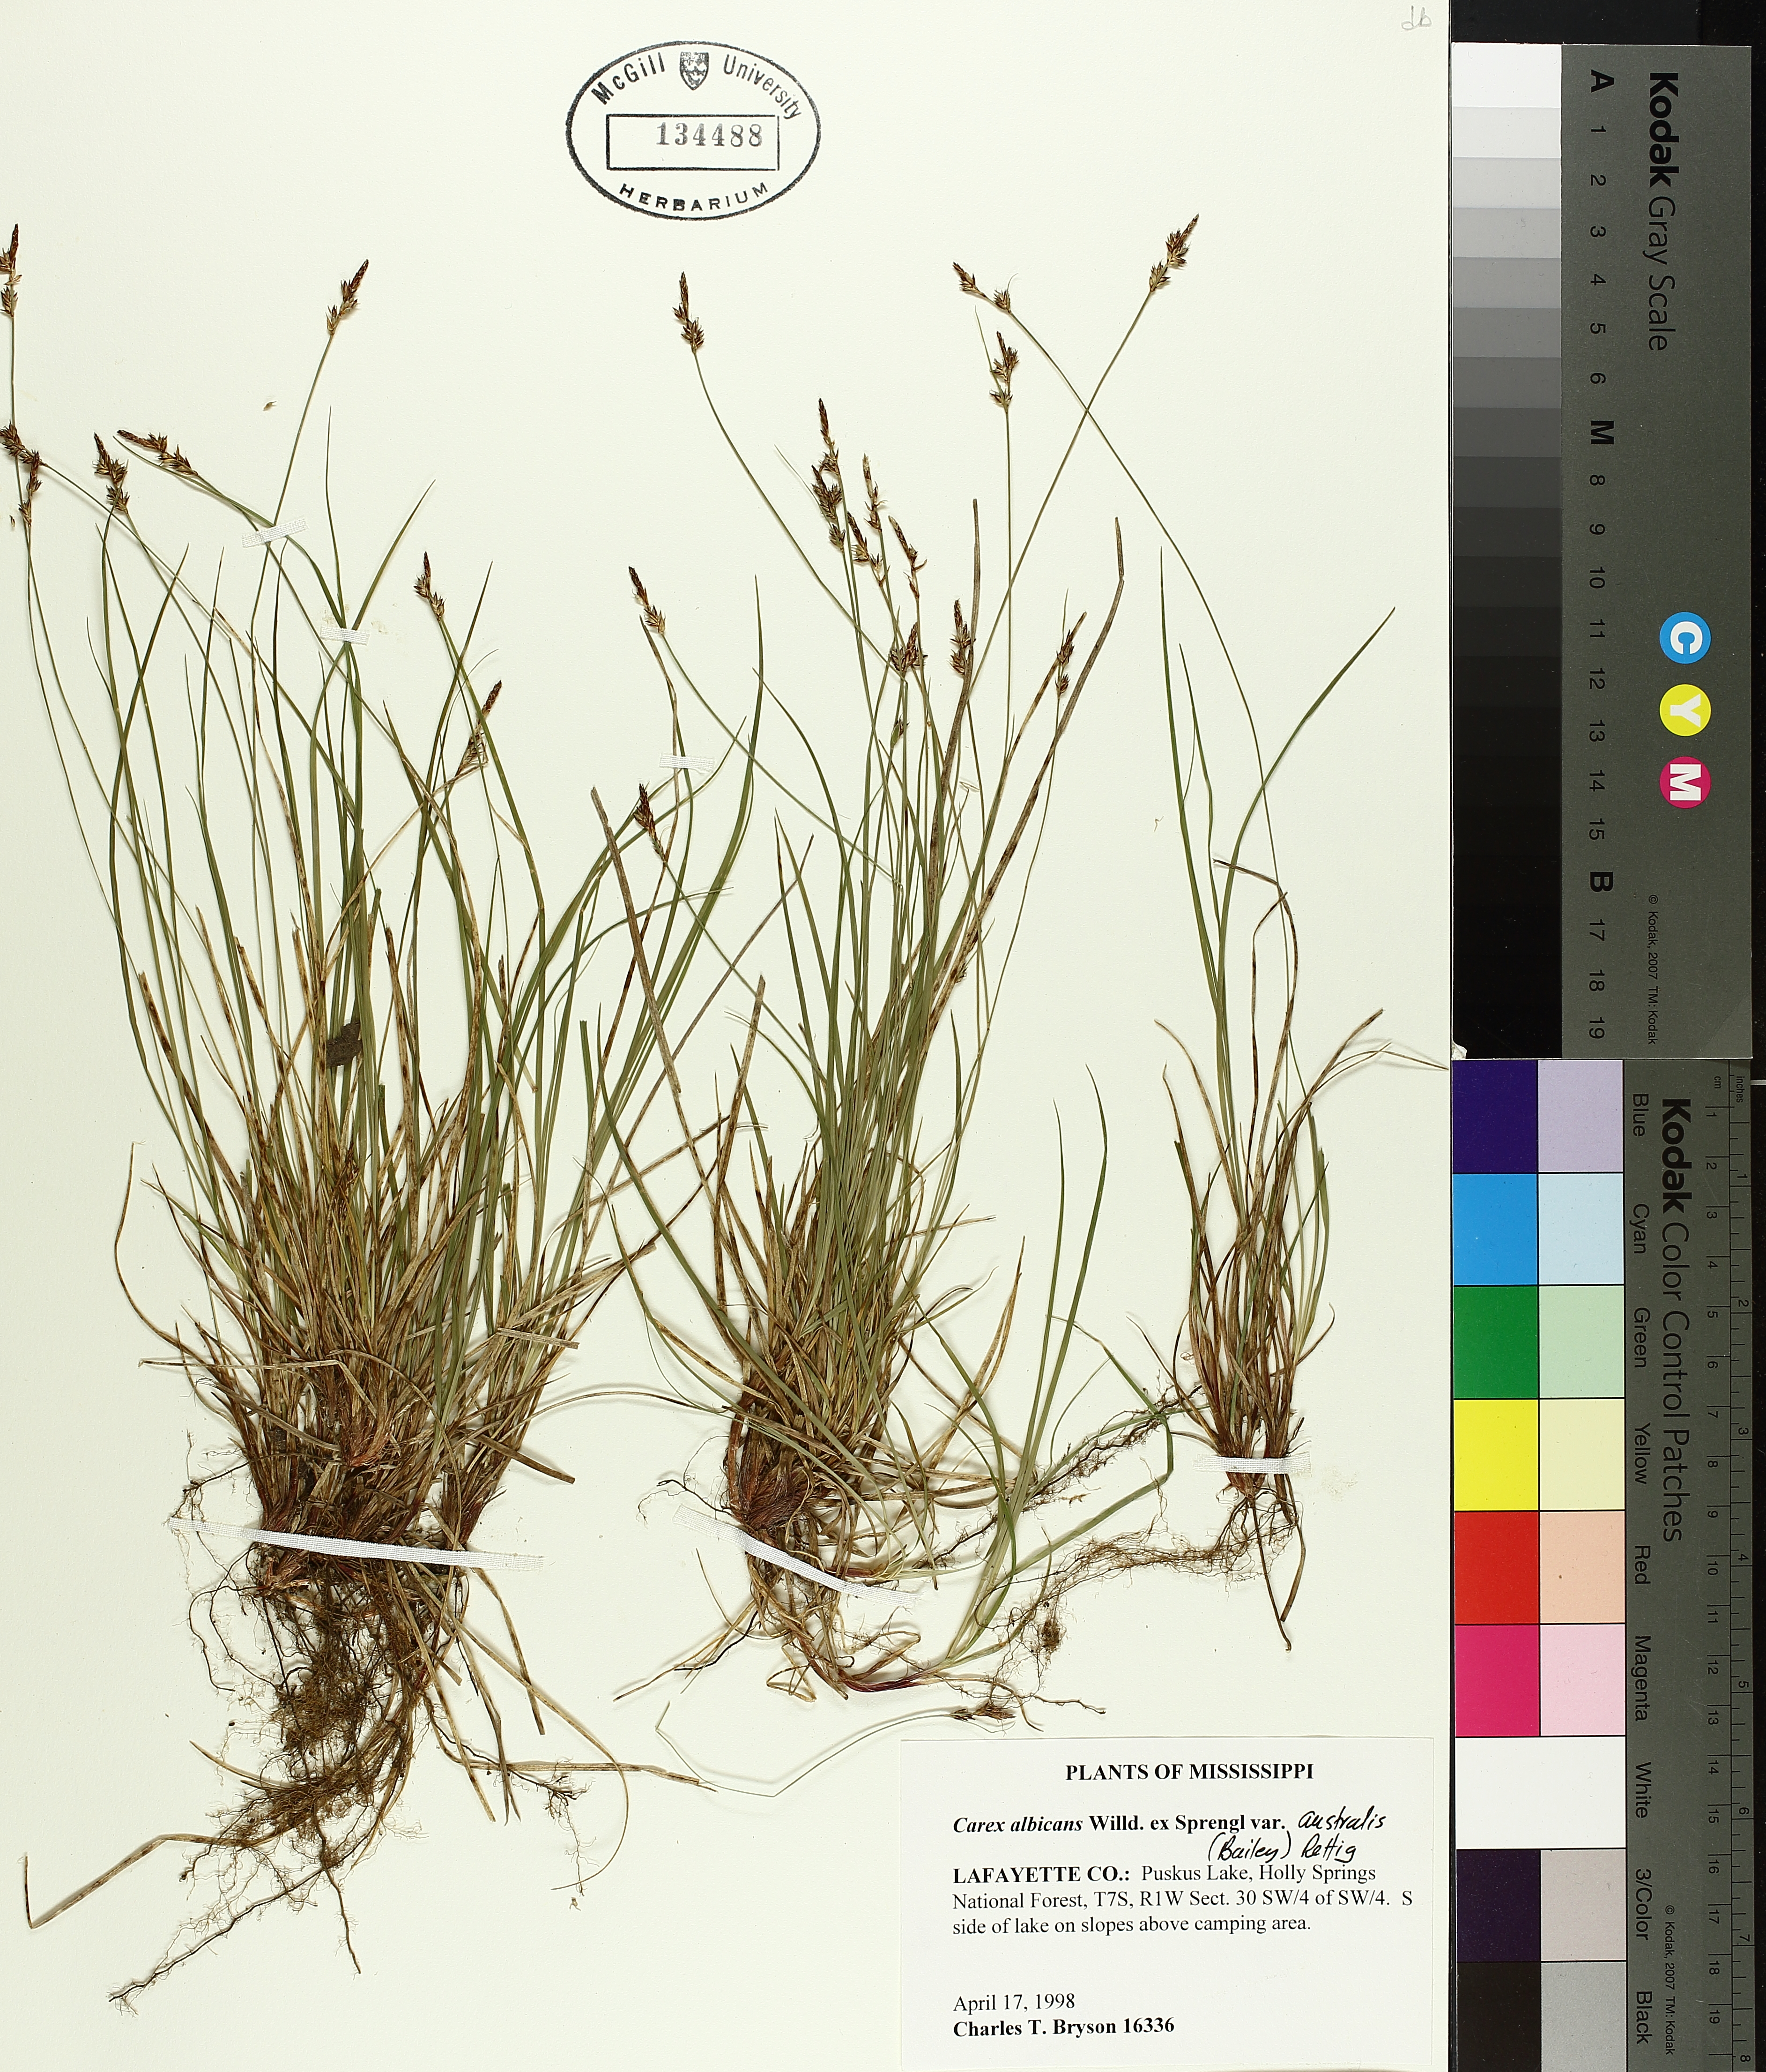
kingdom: Plantae
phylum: Tracheophyta
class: Liliopsida
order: Poales
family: Cyperaceae
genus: Carex
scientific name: Carex albicans
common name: Bellow-beaked sedge
